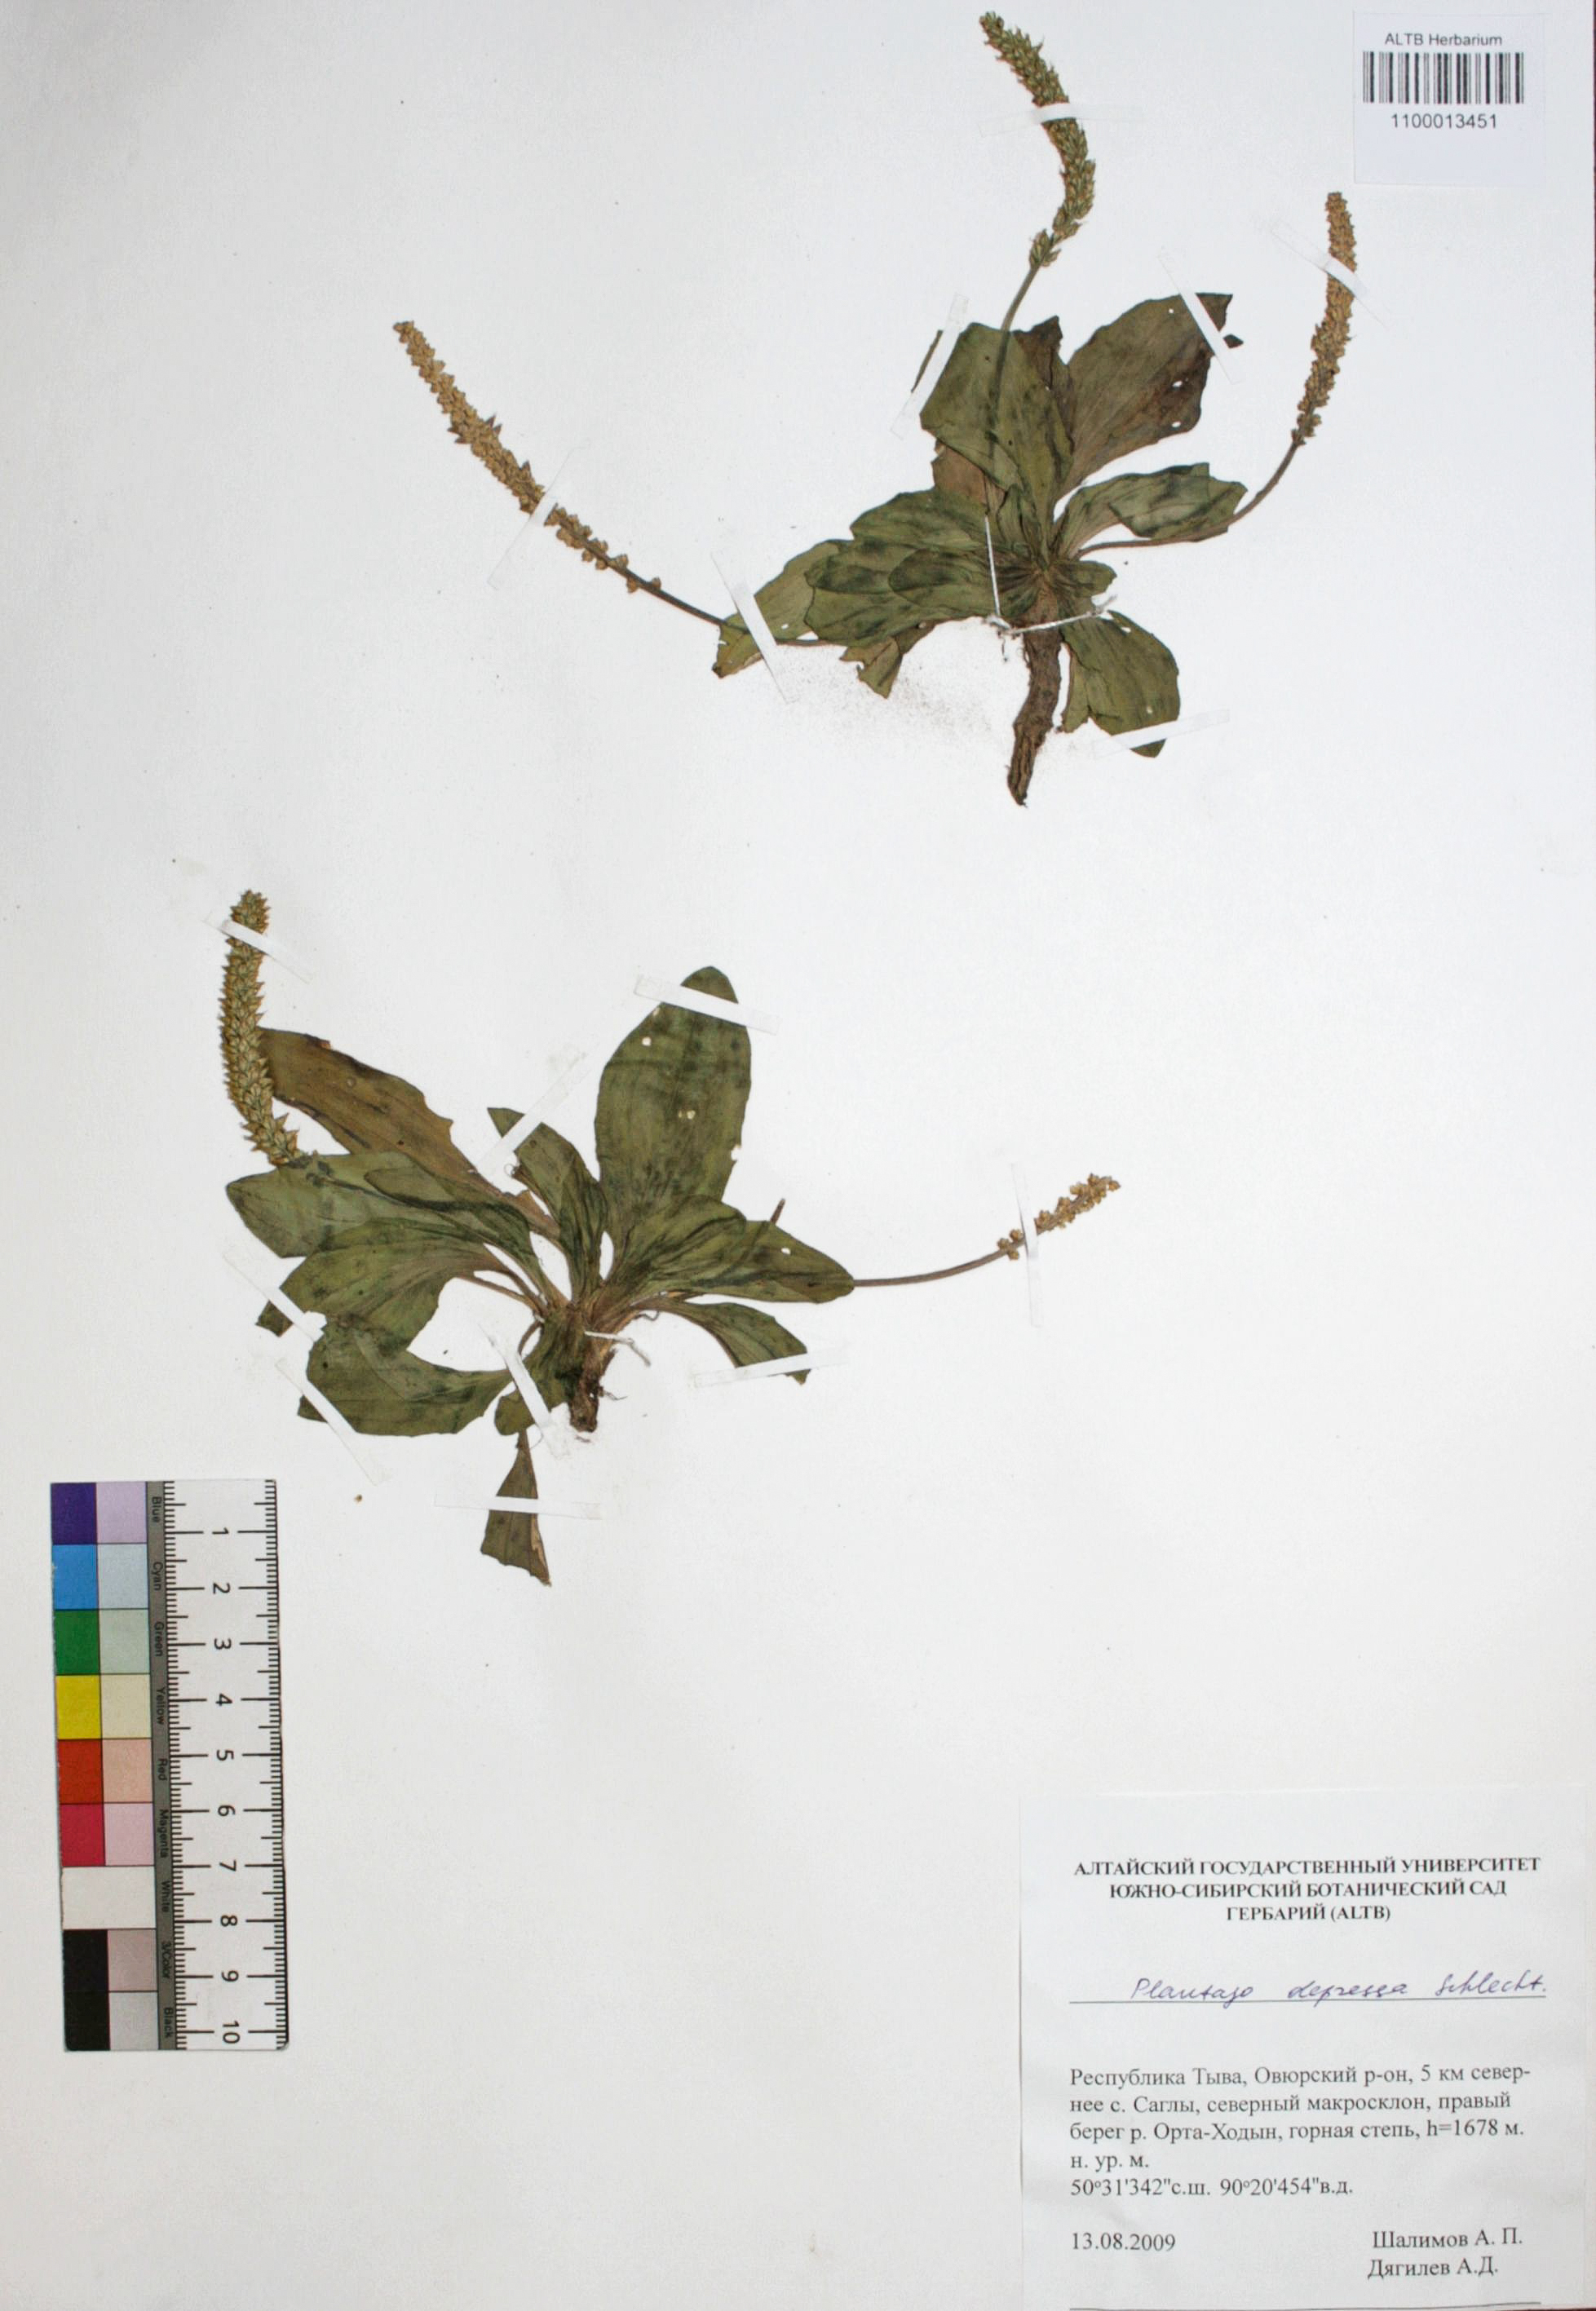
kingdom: Plantae
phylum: Tracheophyta
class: Magnoliopsida
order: Lamiales
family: Plantaginaceae
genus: Plantago
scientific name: Plantago depressa
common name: Depressed plantain
